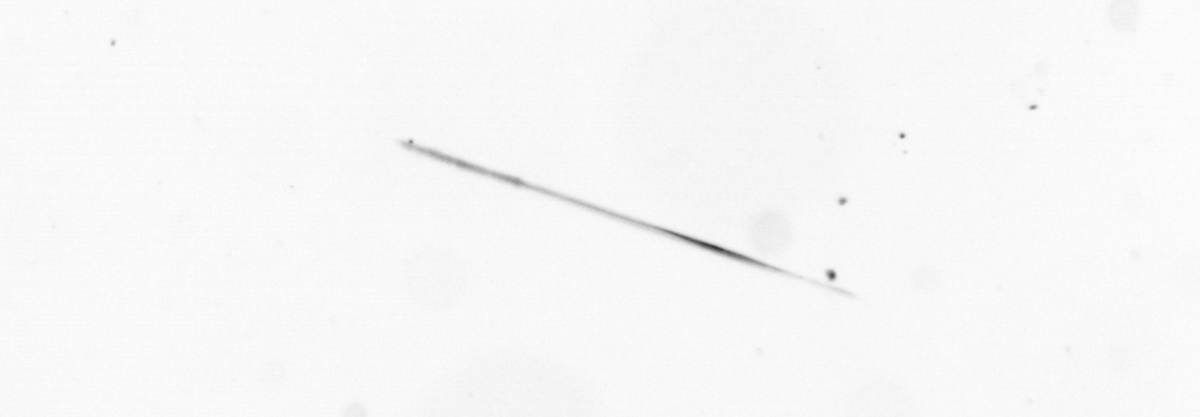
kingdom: Chromista
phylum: Ochrophyta
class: Bacillariophyceae
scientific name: Bacillariophyceae
